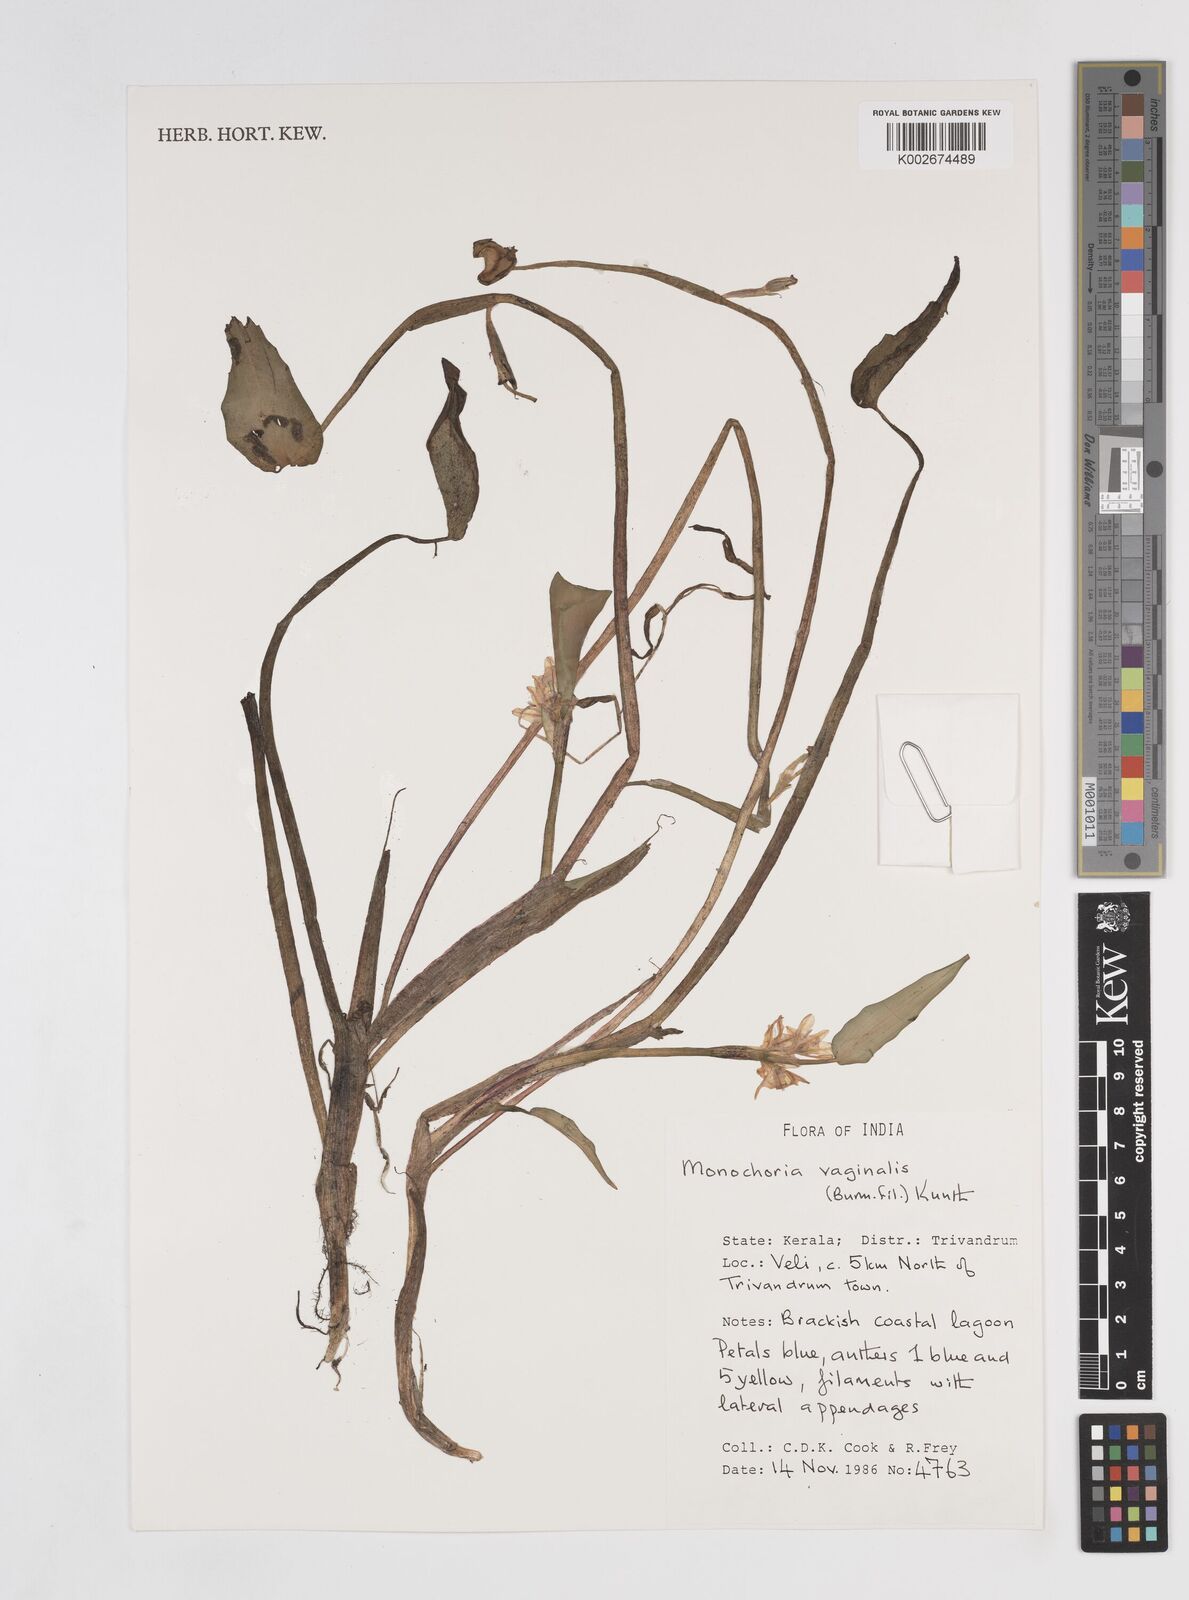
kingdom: Plantae
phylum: Tracheophyta
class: Liliopsida
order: Commelinales
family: Pontederiaceae
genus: Pontederia
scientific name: Pontederia vaginalis
